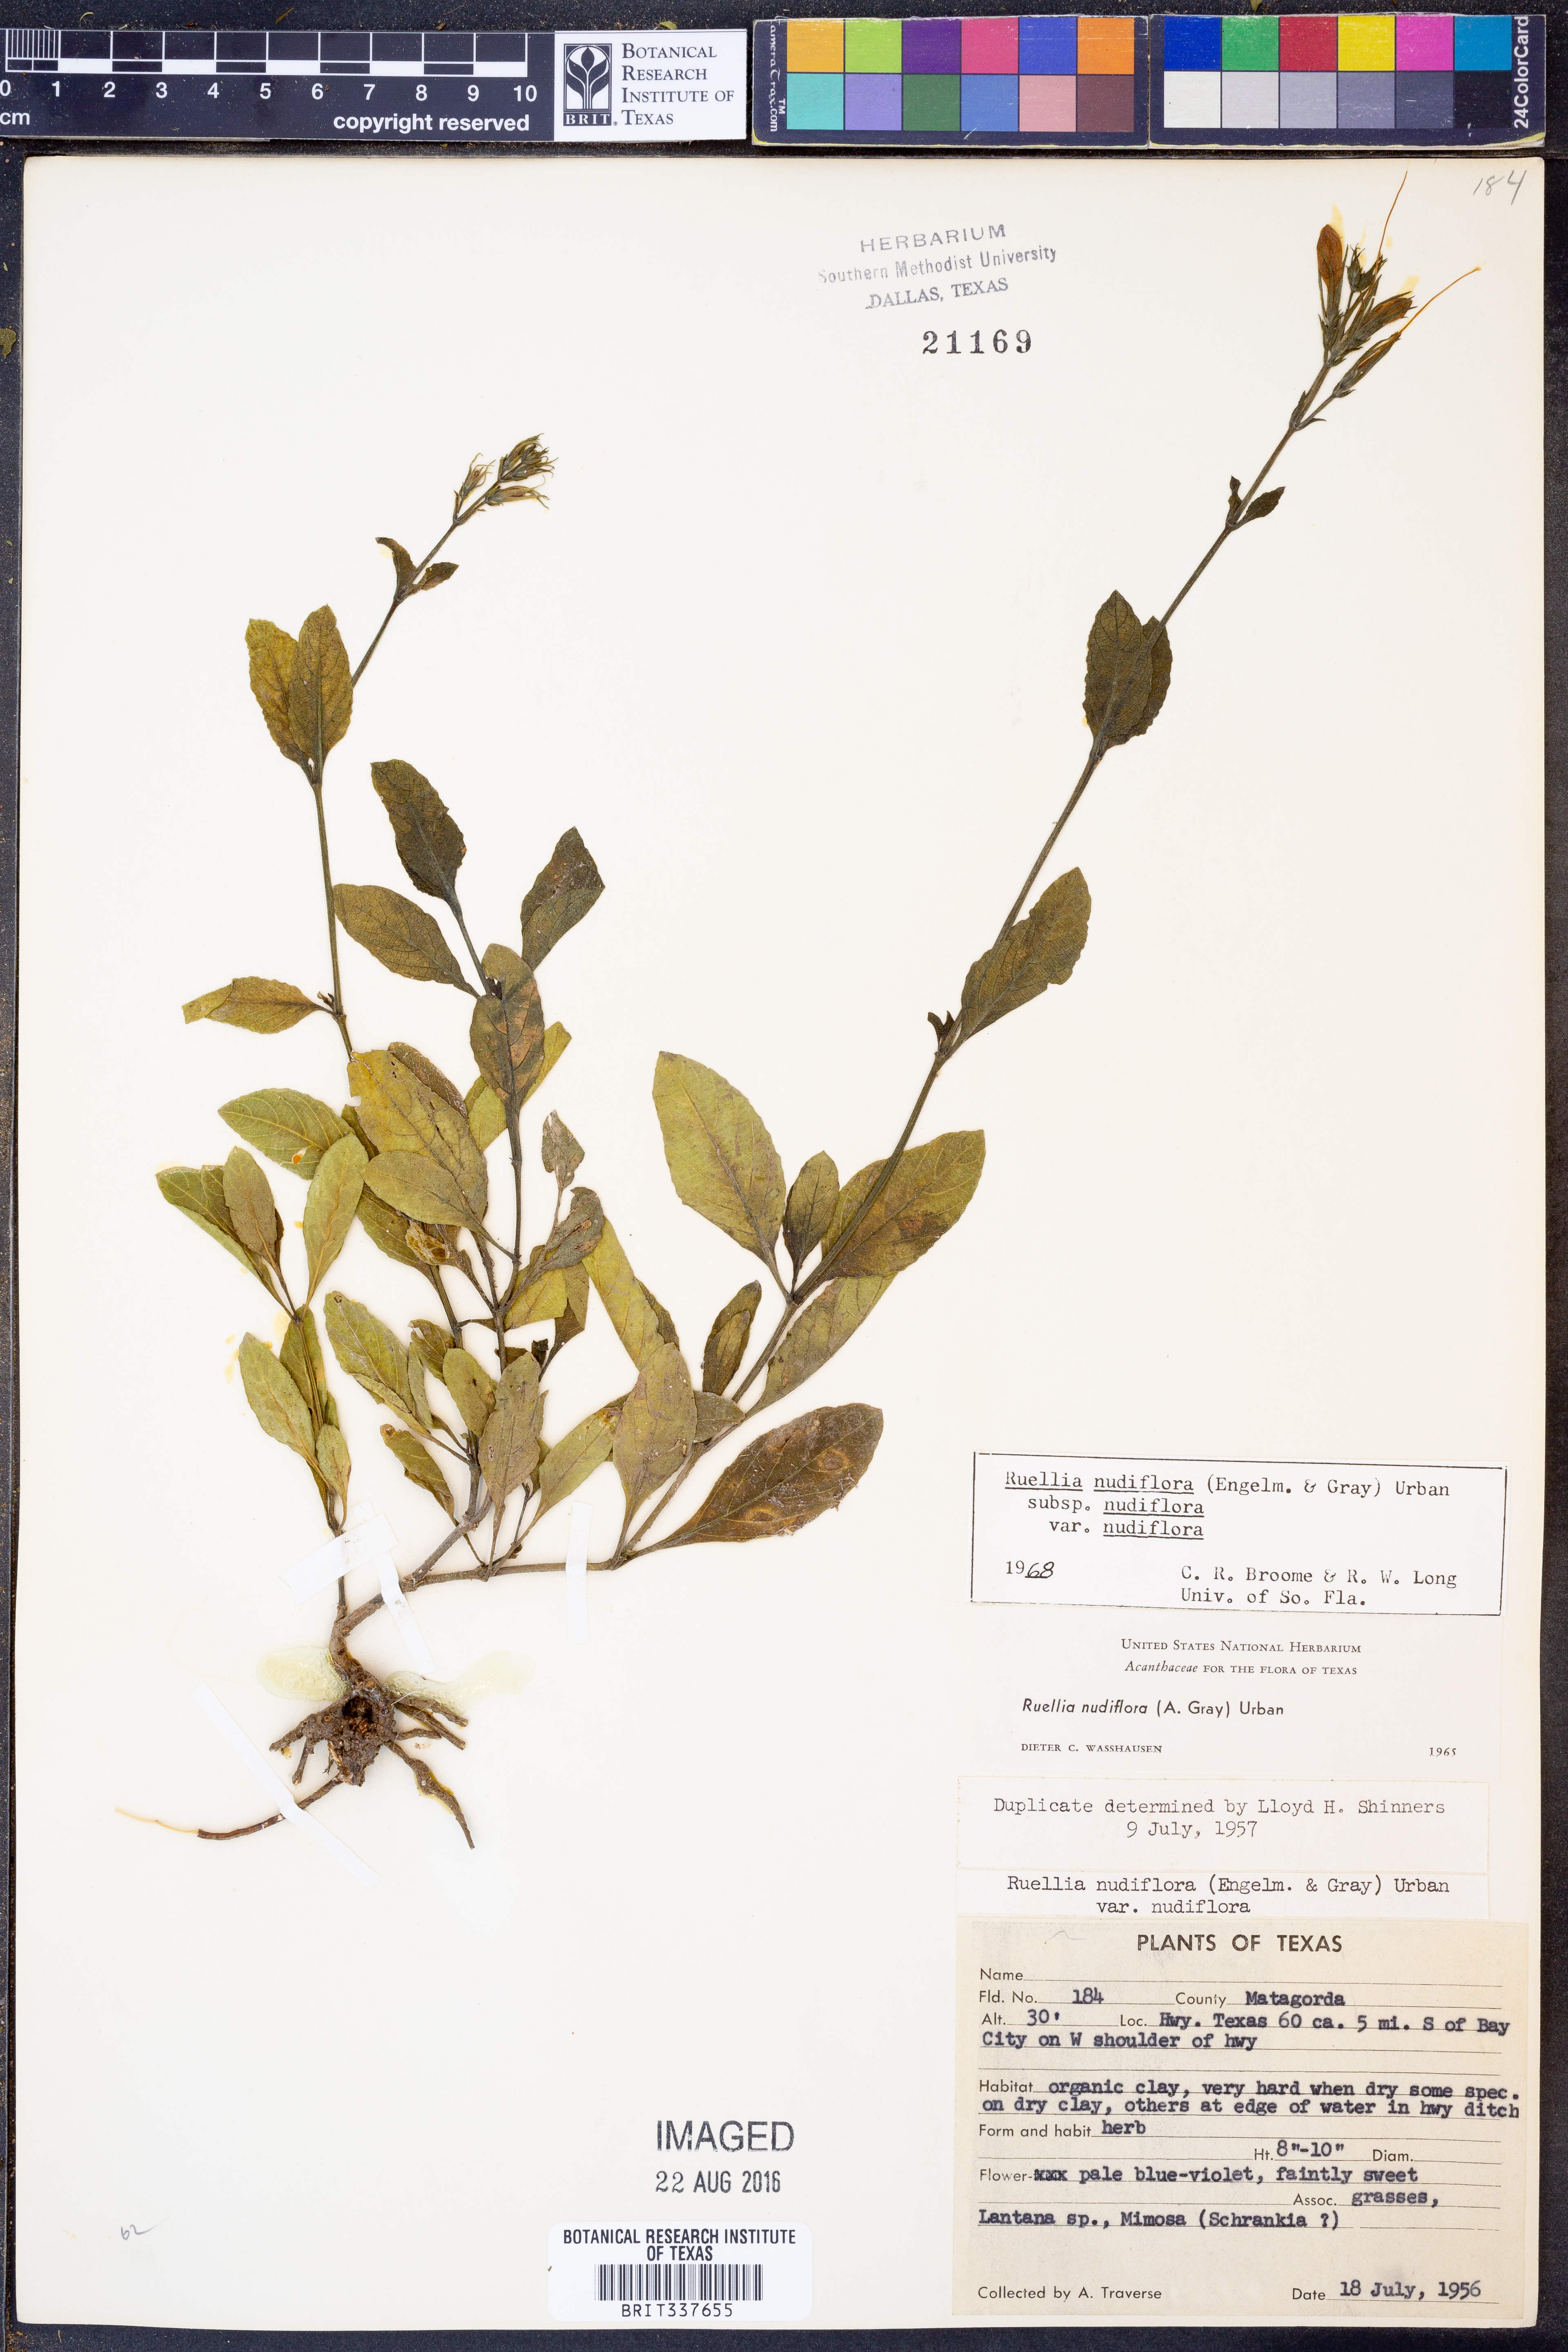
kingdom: Plantae
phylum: Tracheophyta
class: Magnoliopsida
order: Lamiales
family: Acanthaceae
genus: Ruellia
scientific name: Ruellia ciliatiflora
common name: Hairyflower wild petunia
